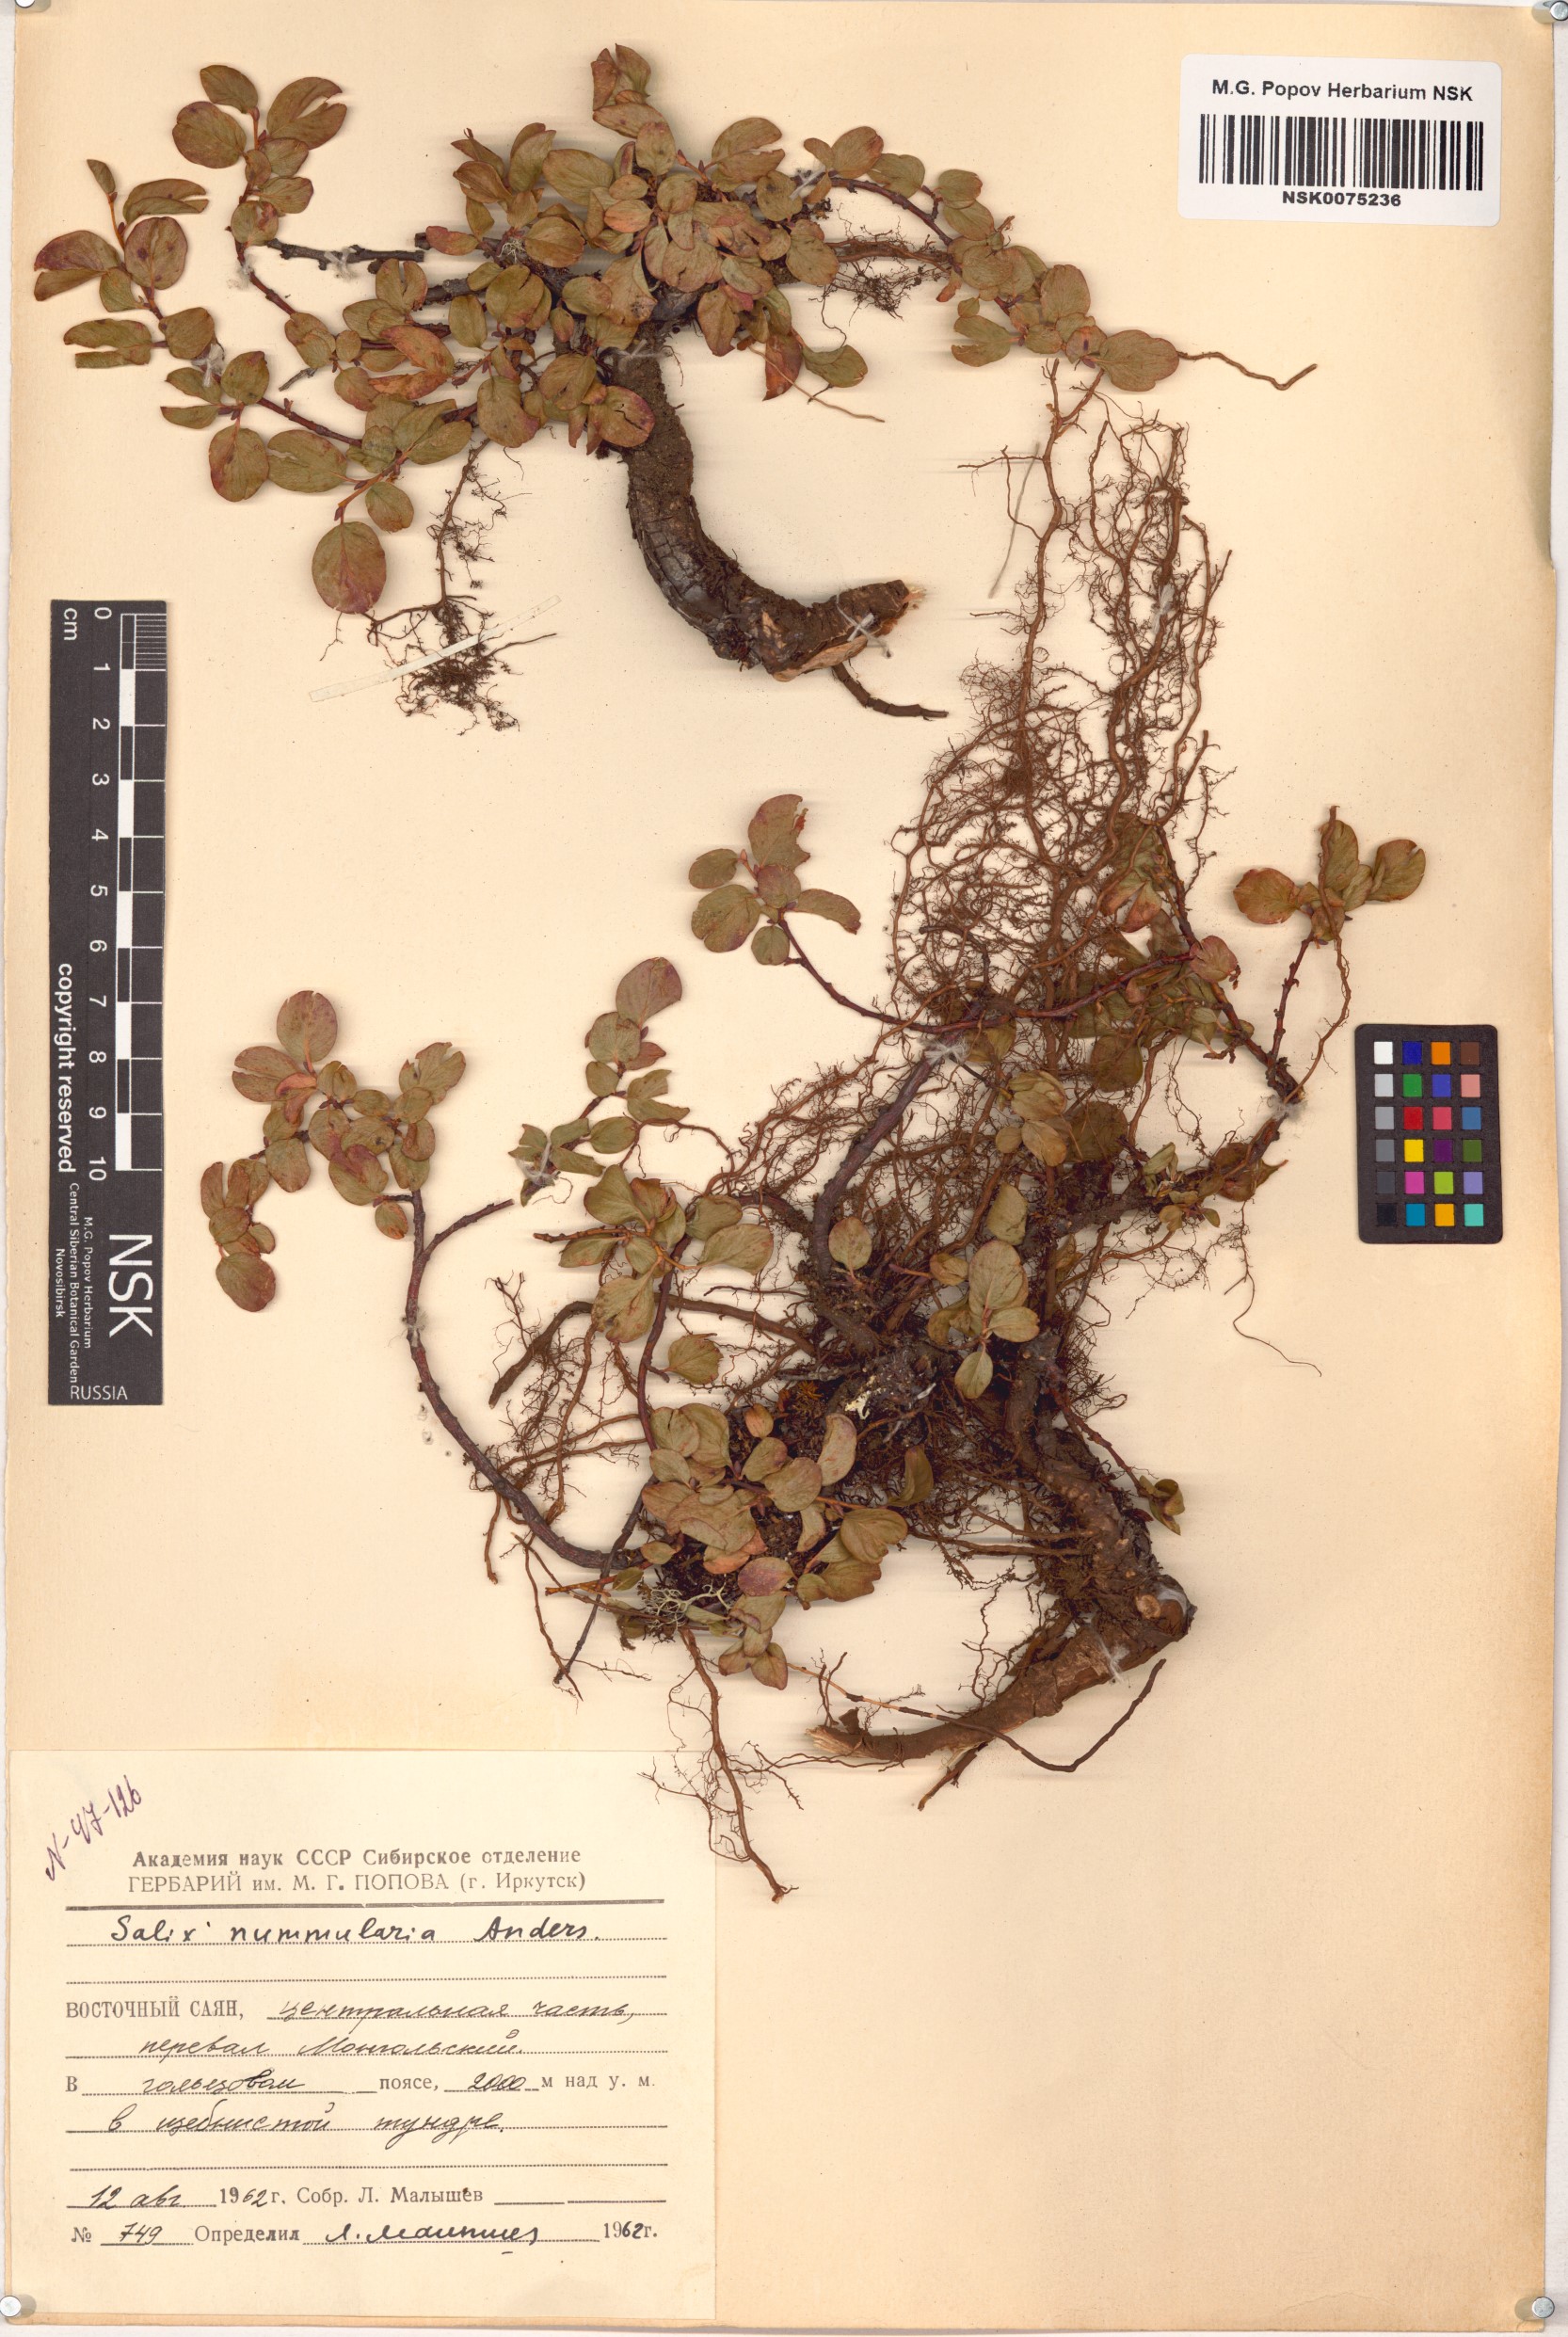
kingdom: Plantae
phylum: Tracheophyta
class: Magnoliopsida
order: Malpighiales
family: Salicaceae
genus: Salix
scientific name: Salix nummularia
